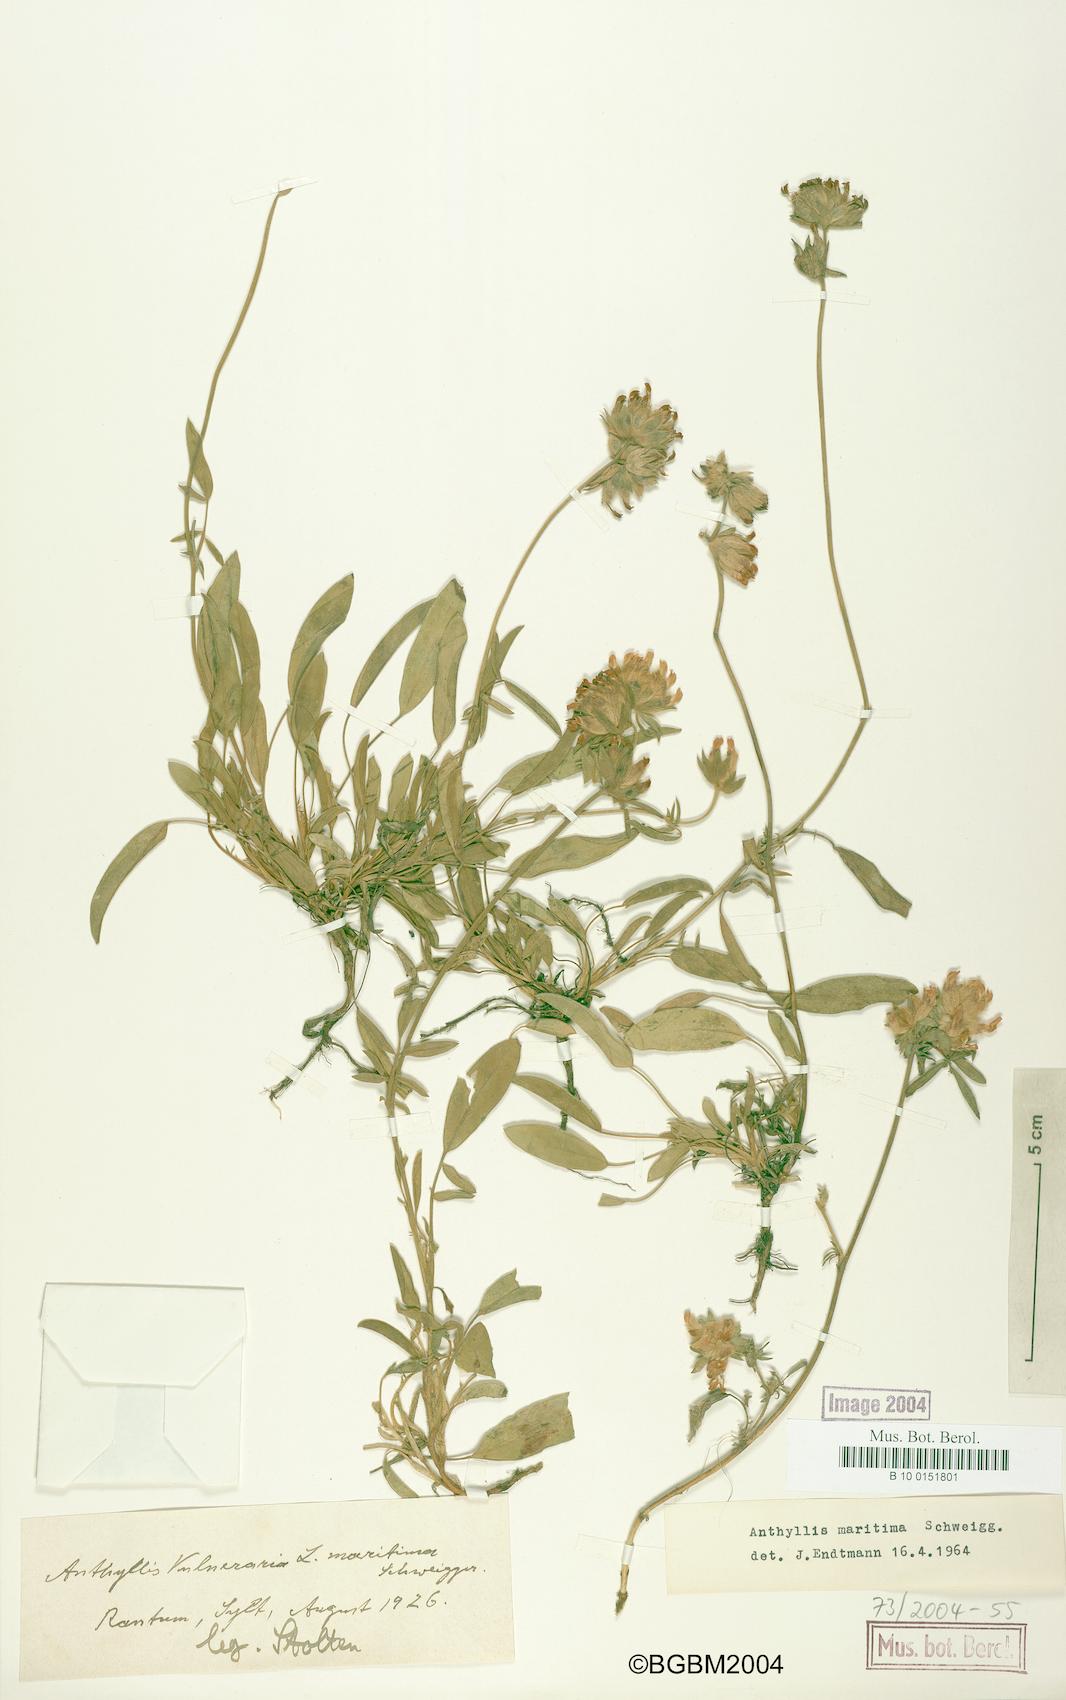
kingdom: Plantae
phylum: Tracheophyta
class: Magnoliopsida
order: Fabales
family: Fabaceae
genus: Anthyllis
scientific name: Anthyllis vulneraria
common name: Kidney vetch
